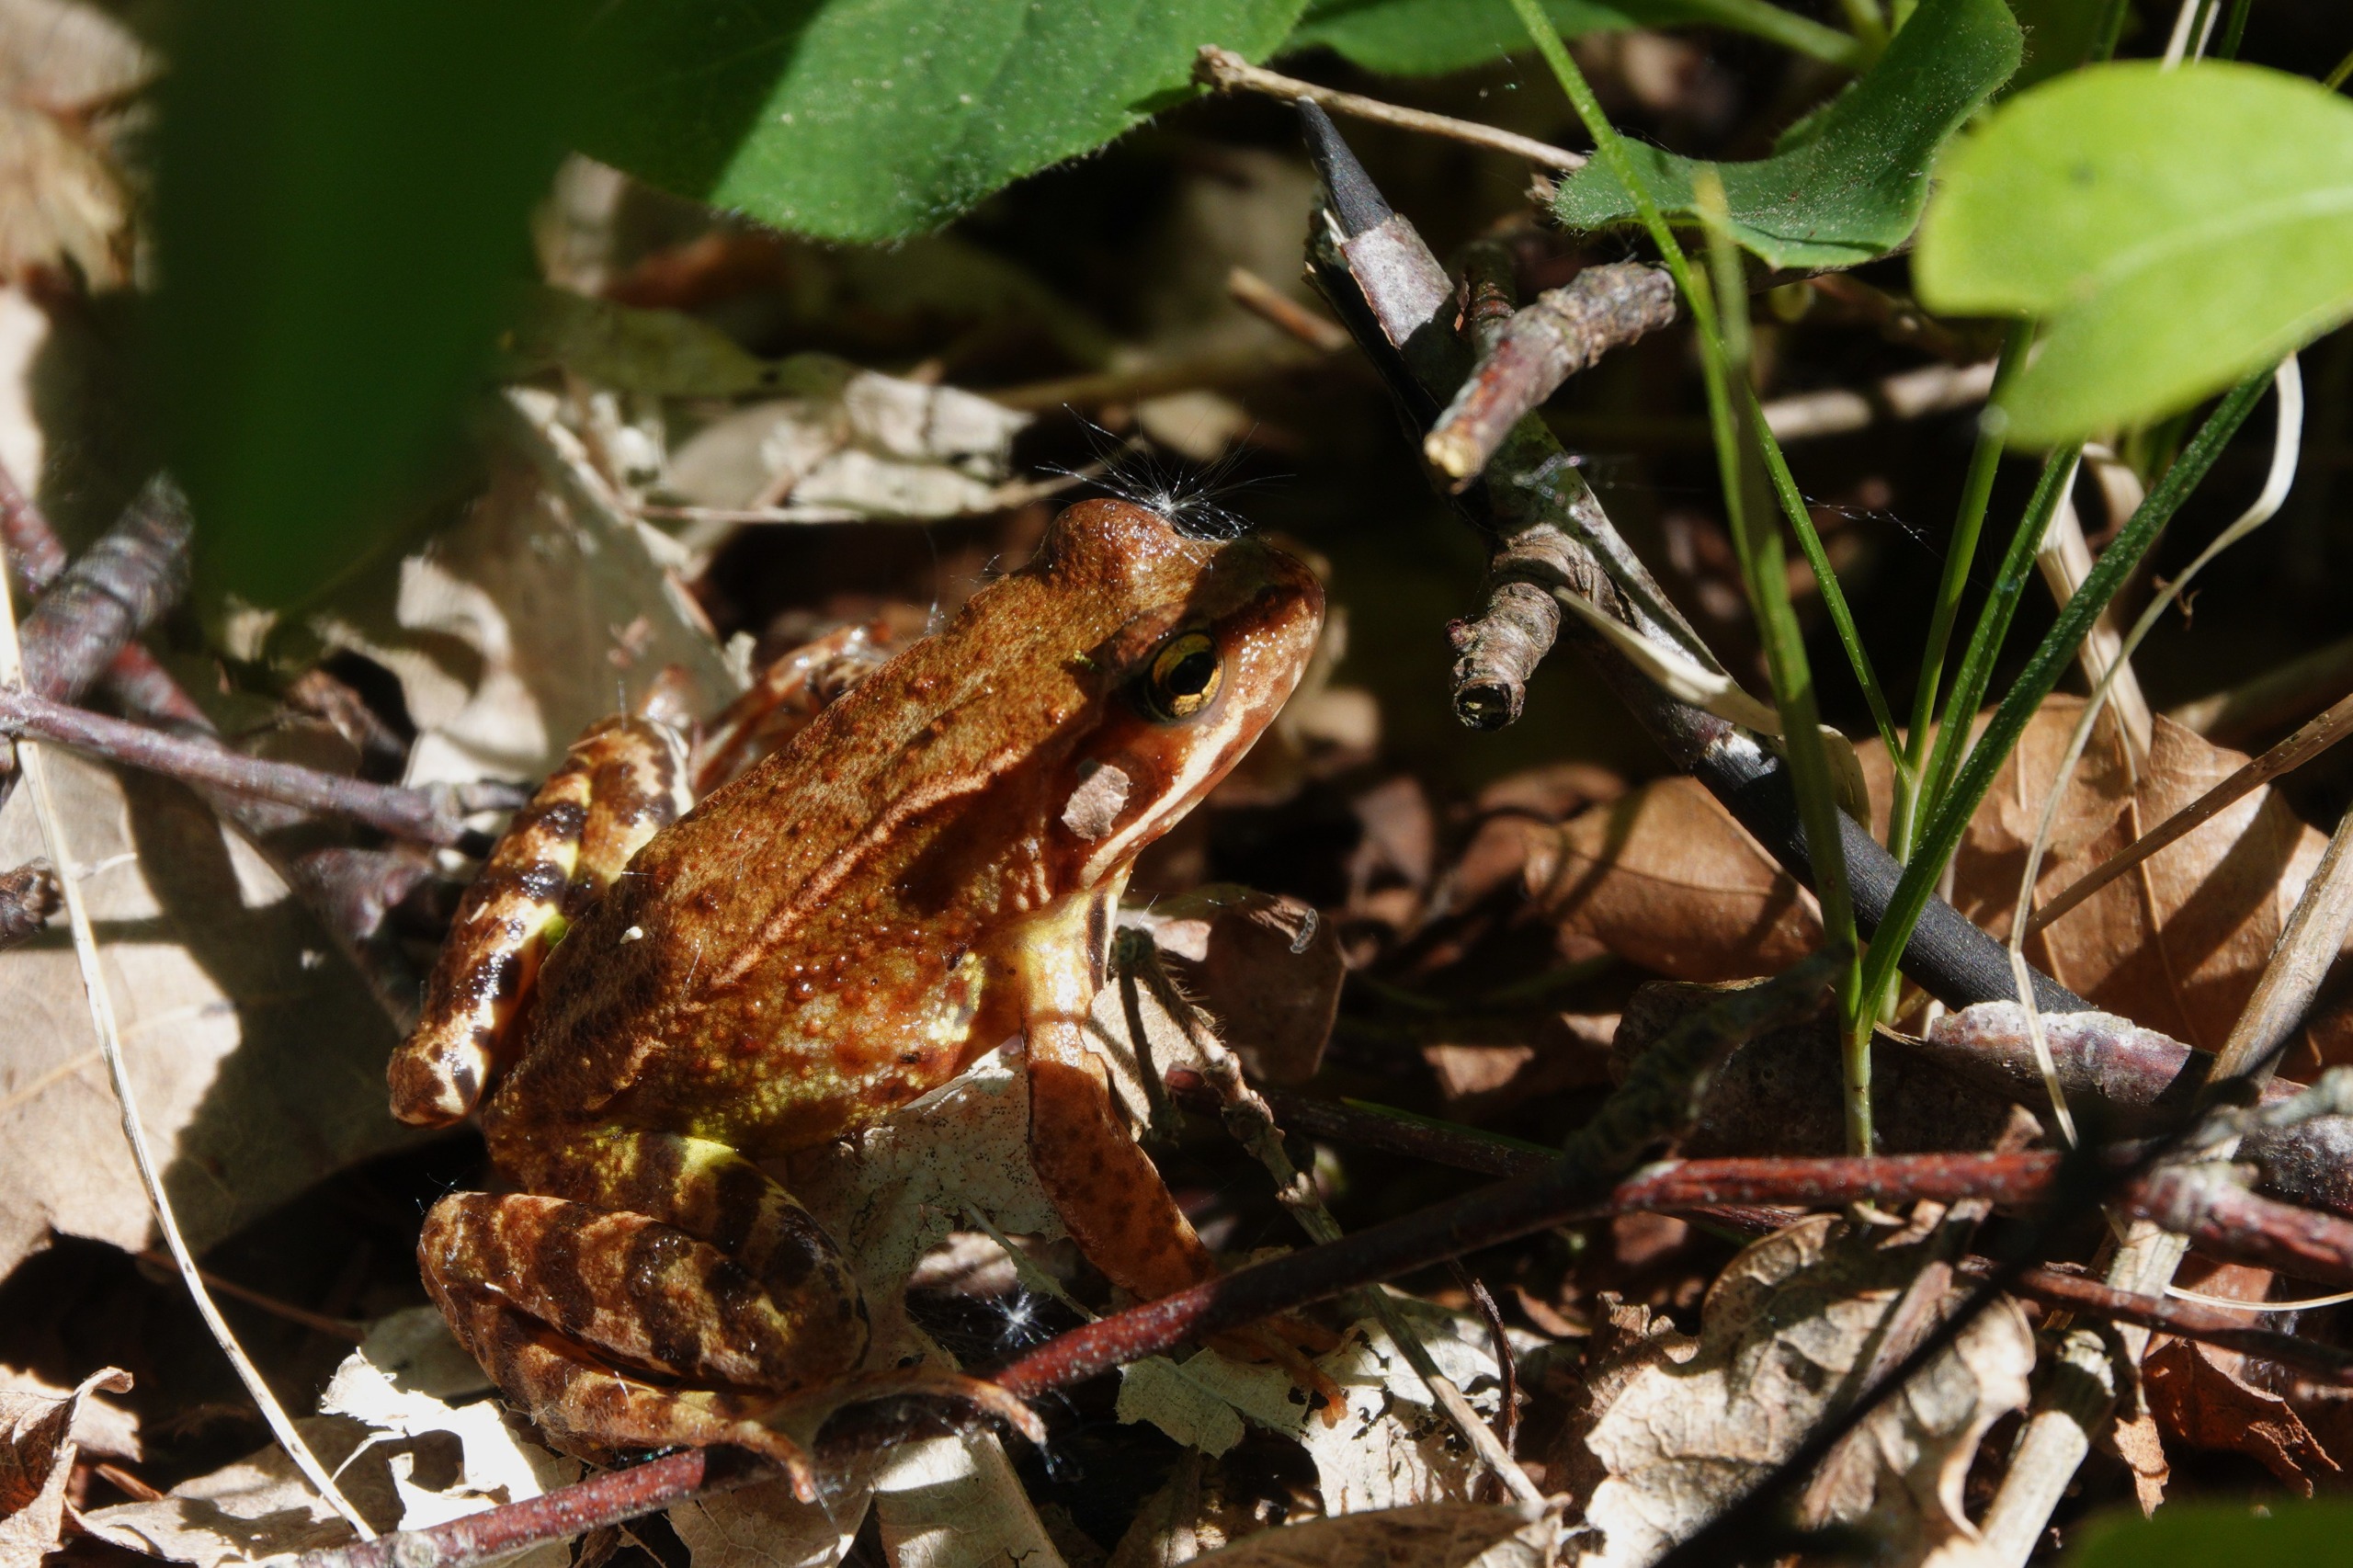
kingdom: Animalia
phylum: Chordata
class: Amphibia
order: Anura
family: Ranidae
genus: Rana
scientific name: Rana temporaria
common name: Butsnudet frø
